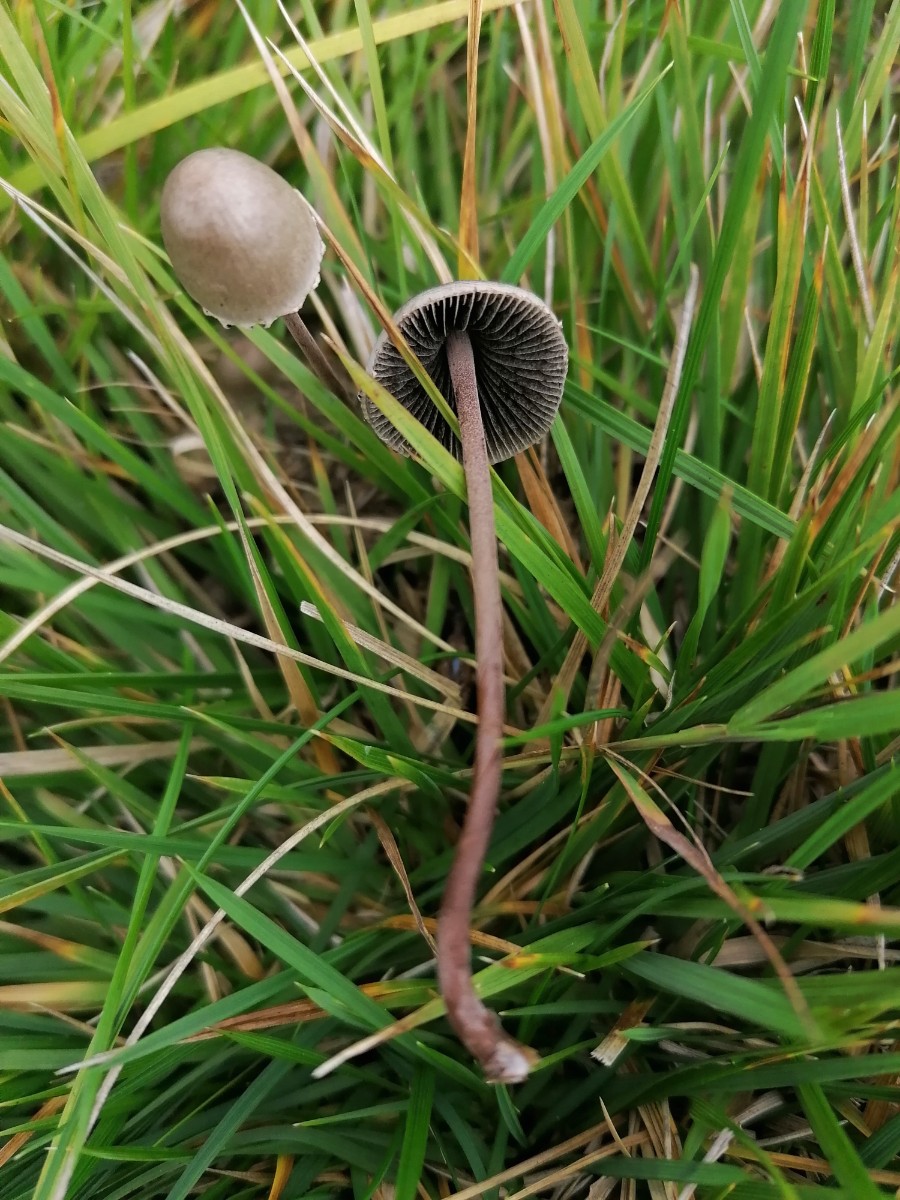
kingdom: Fungi
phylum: Basidiomycota
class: Agaricomycetes
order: Agaricales
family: Bolbitiaceae
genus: Panaeolus
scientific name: Panaeolus papilionaceus
